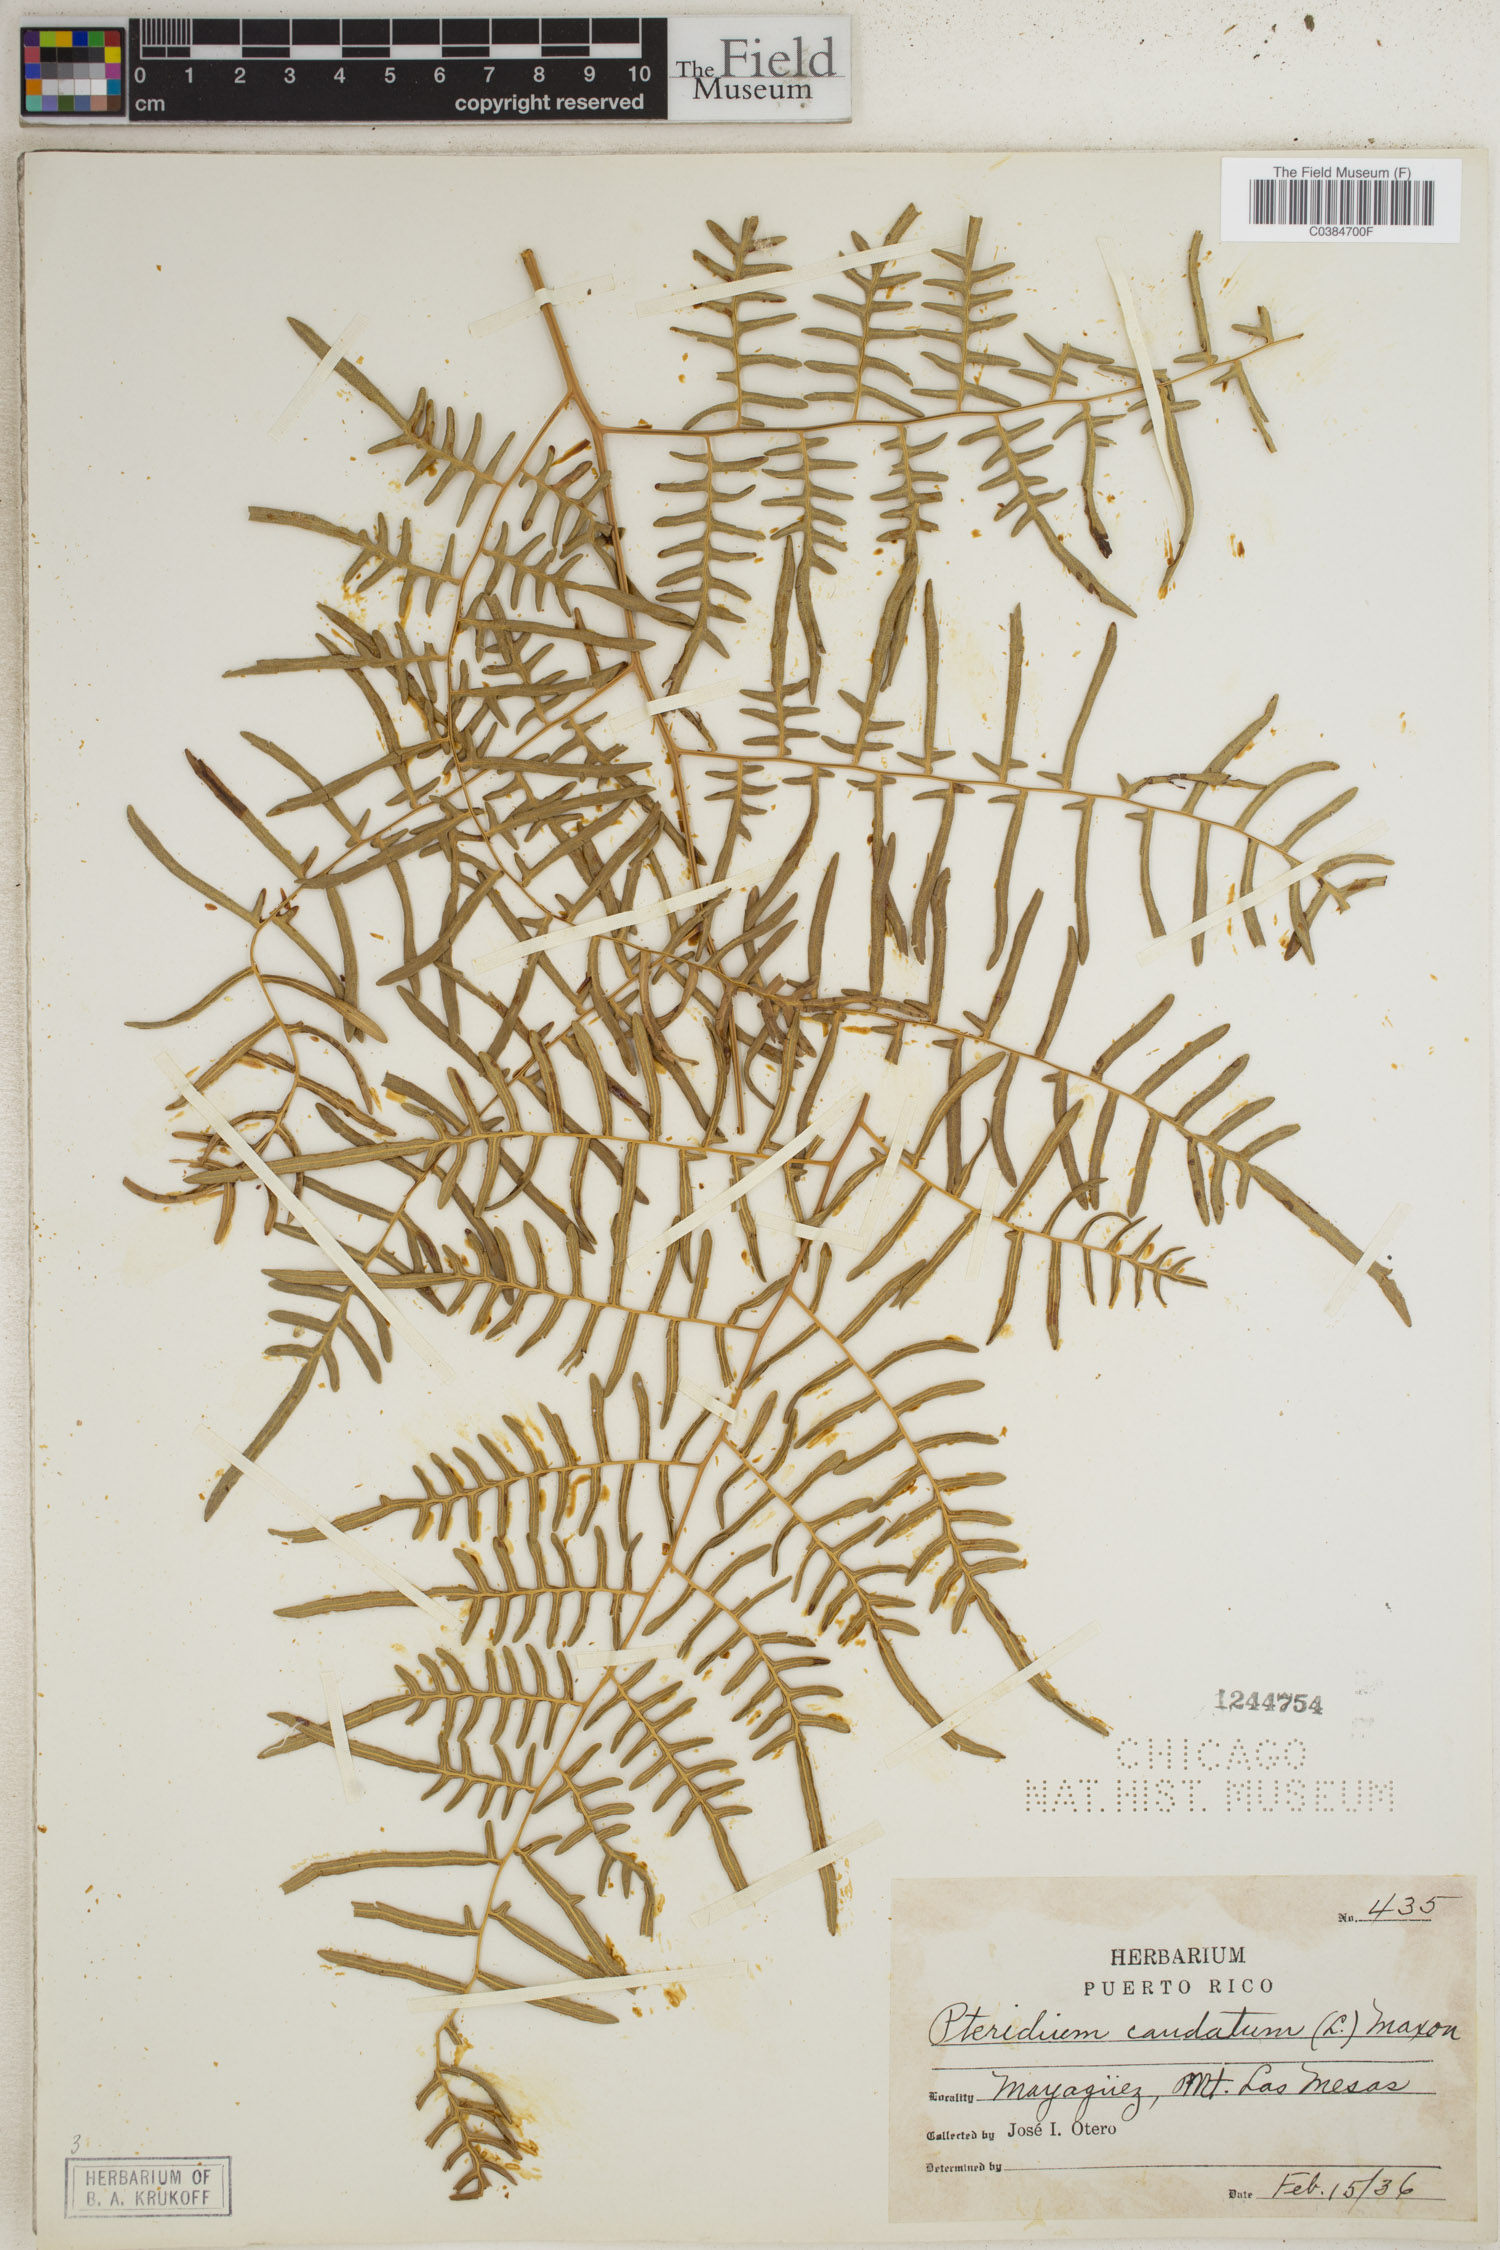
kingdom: Plantae
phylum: Tracheophyta
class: Polypodiopsida
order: Polypodiales
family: Dennstaedtiaceae
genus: Pteridium
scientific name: Pteridium caudatum
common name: Southern bracken fern
